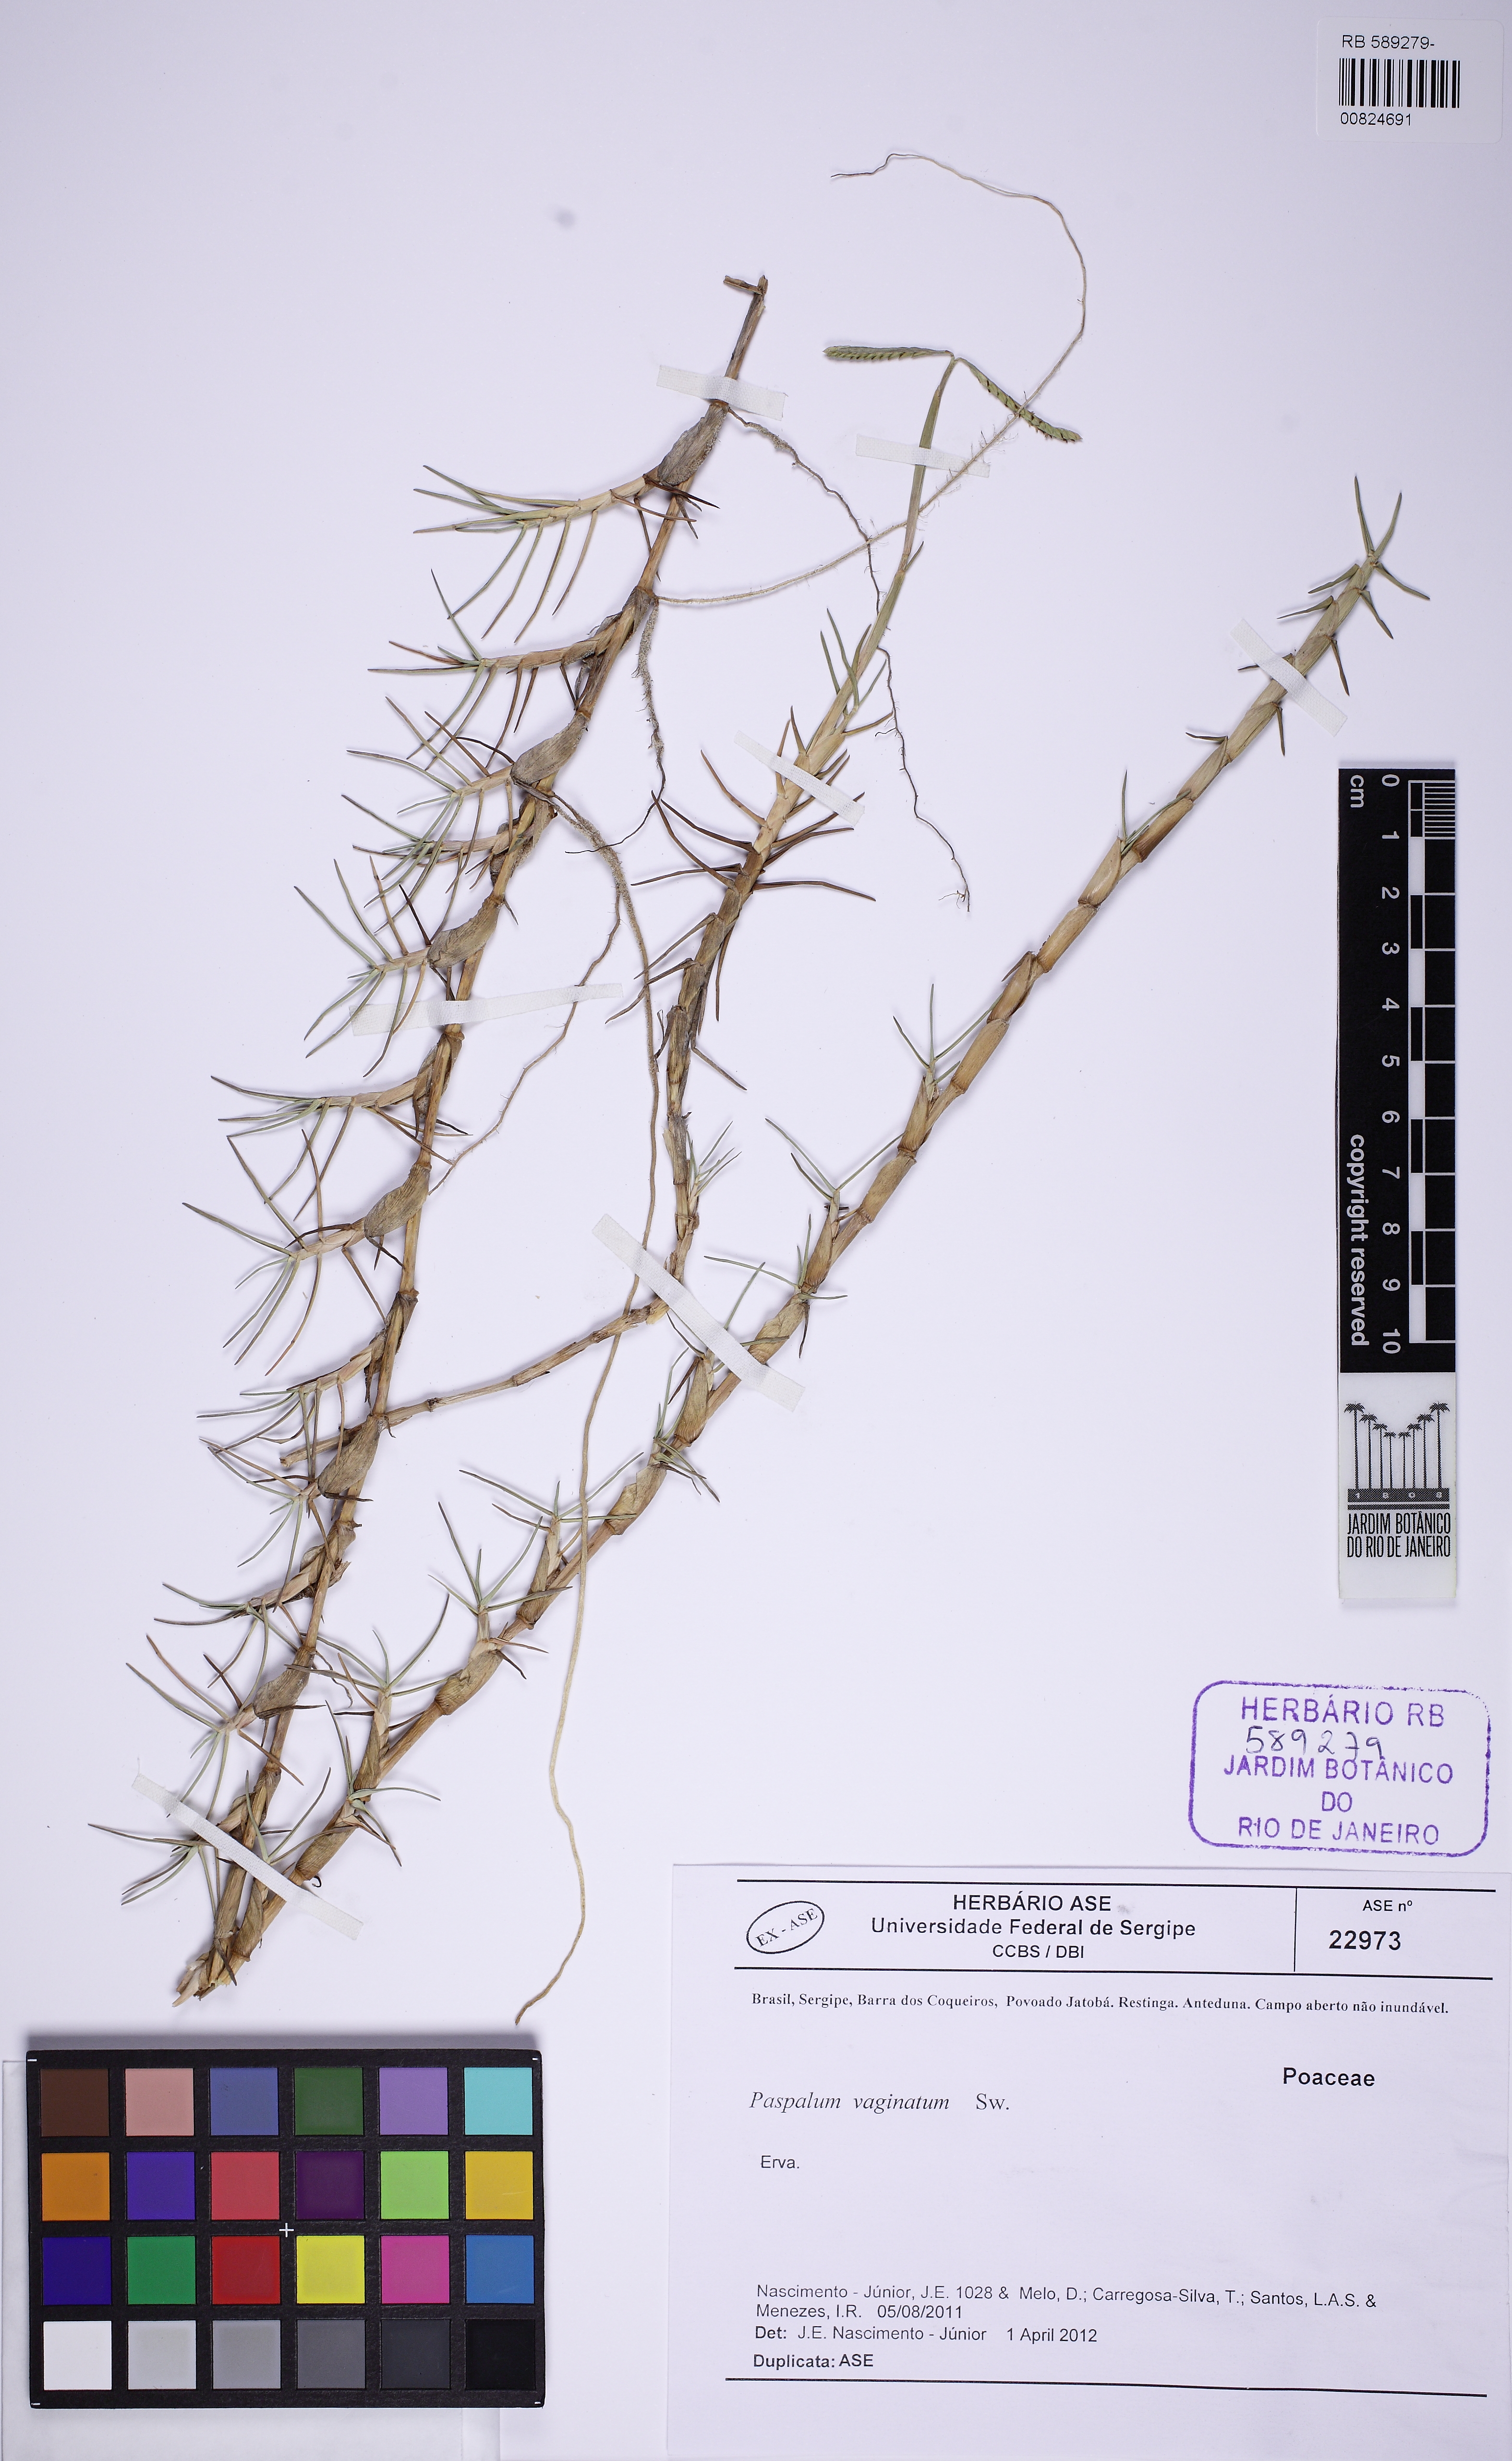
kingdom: Plantae
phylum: Tracheophyta
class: Liliopsida
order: Poales
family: Poaceae
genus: Paspalum
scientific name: Paspalum vaginatum
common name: Seashore paspalum
